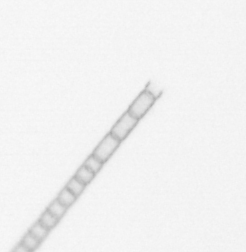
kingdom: Chromista
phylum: Ochrophyta
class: Bacillariophyceae
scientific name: Bacillariophyceae
